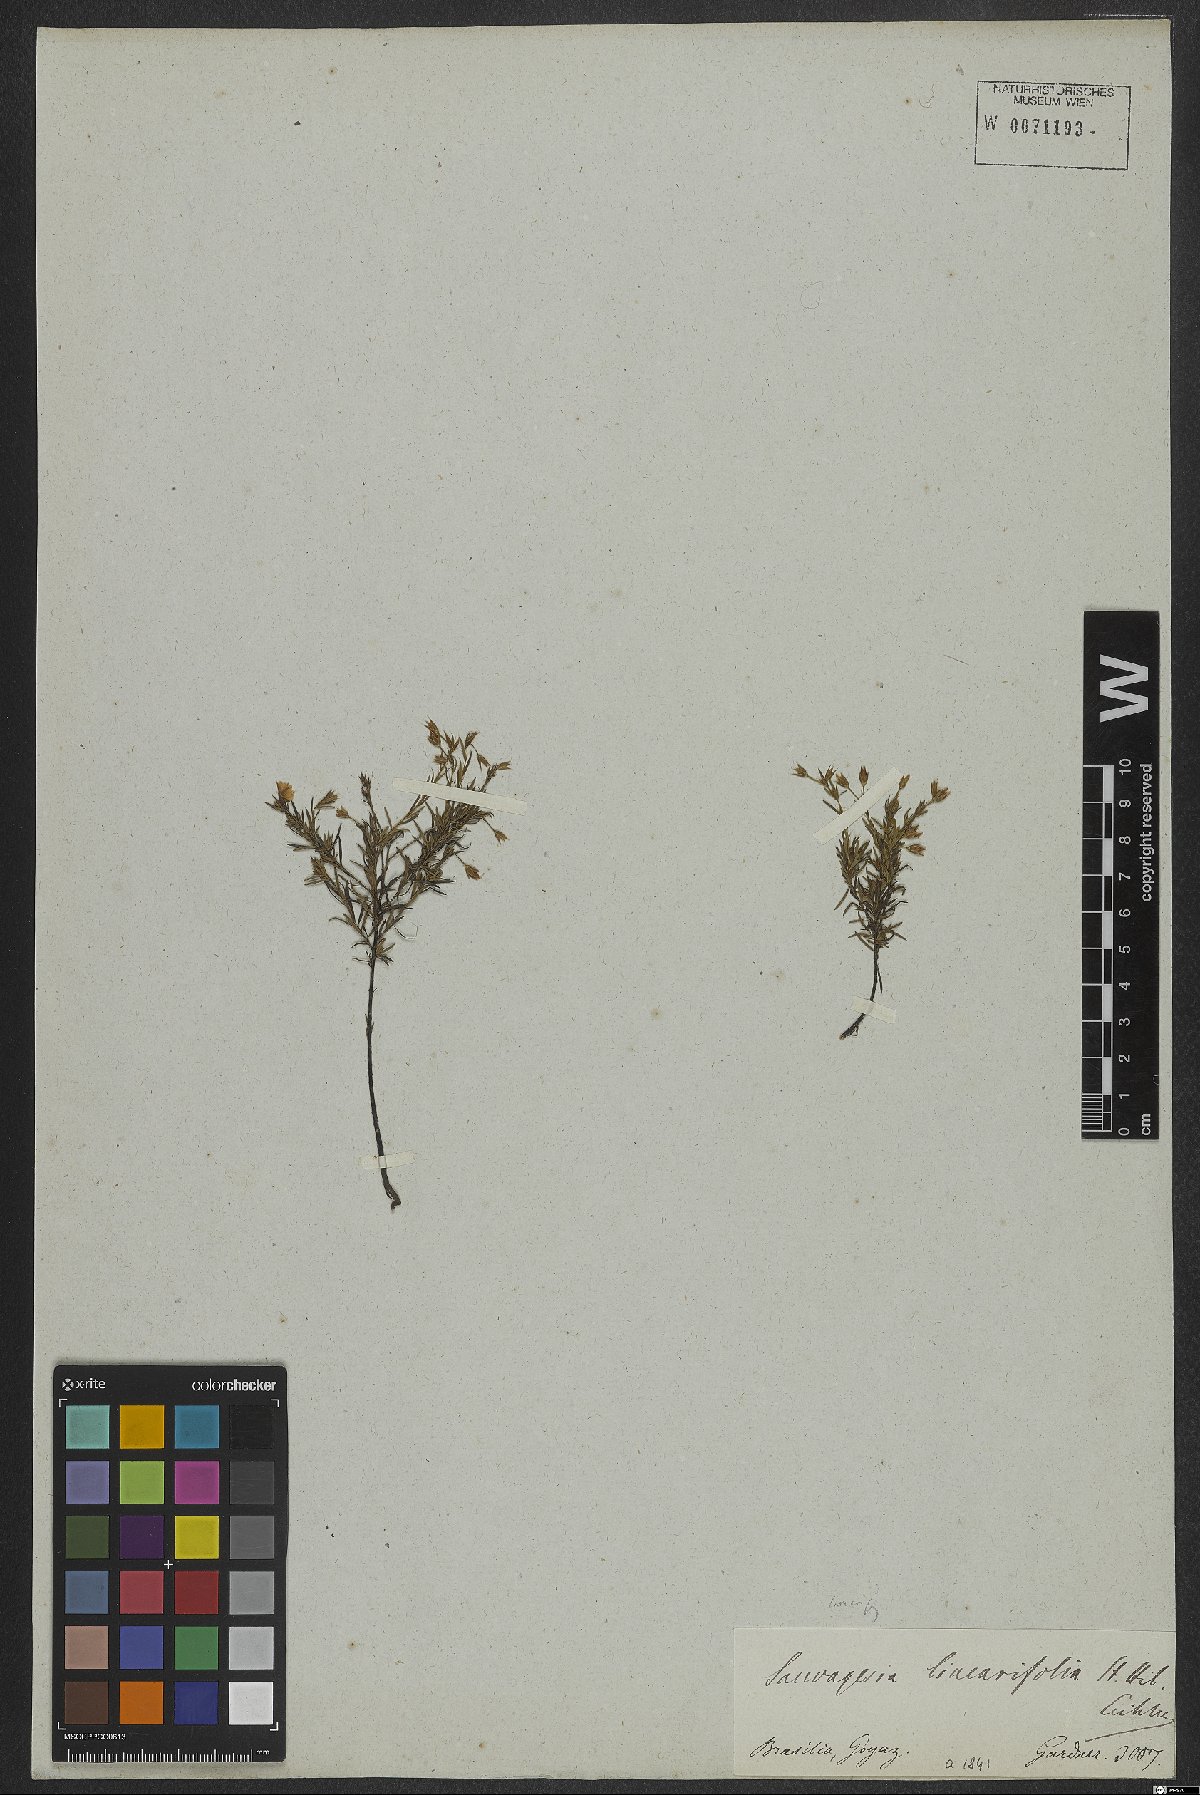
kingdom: Plantae
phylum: Tracheophyta
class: Magnoliopsida
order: Malpighiales
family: Ochnaceae
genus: Sauvagesia
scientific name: Sauvagesia linearifolia
